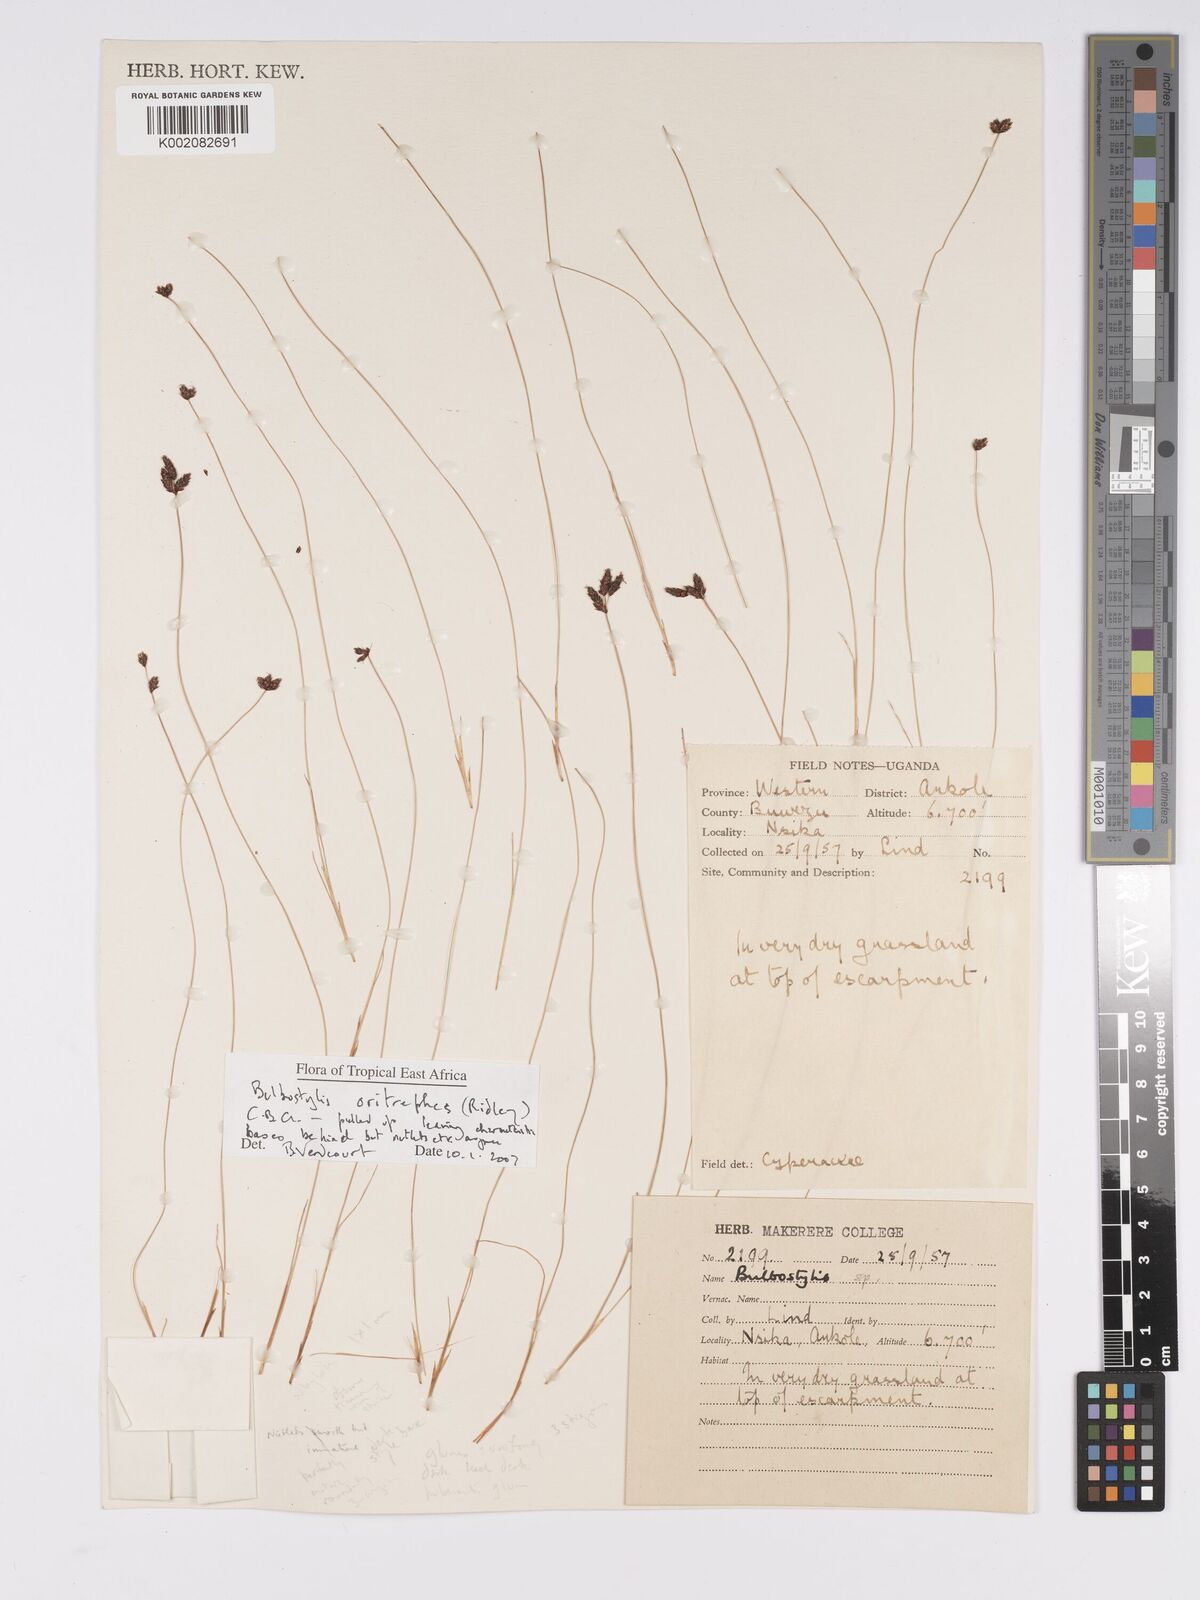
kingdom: Plantae
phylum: Tracheophyta
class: Liliopsida
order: Poales
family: Cyperaceae
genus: Bulbostylis
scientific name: Bulbostylis oritrephes
